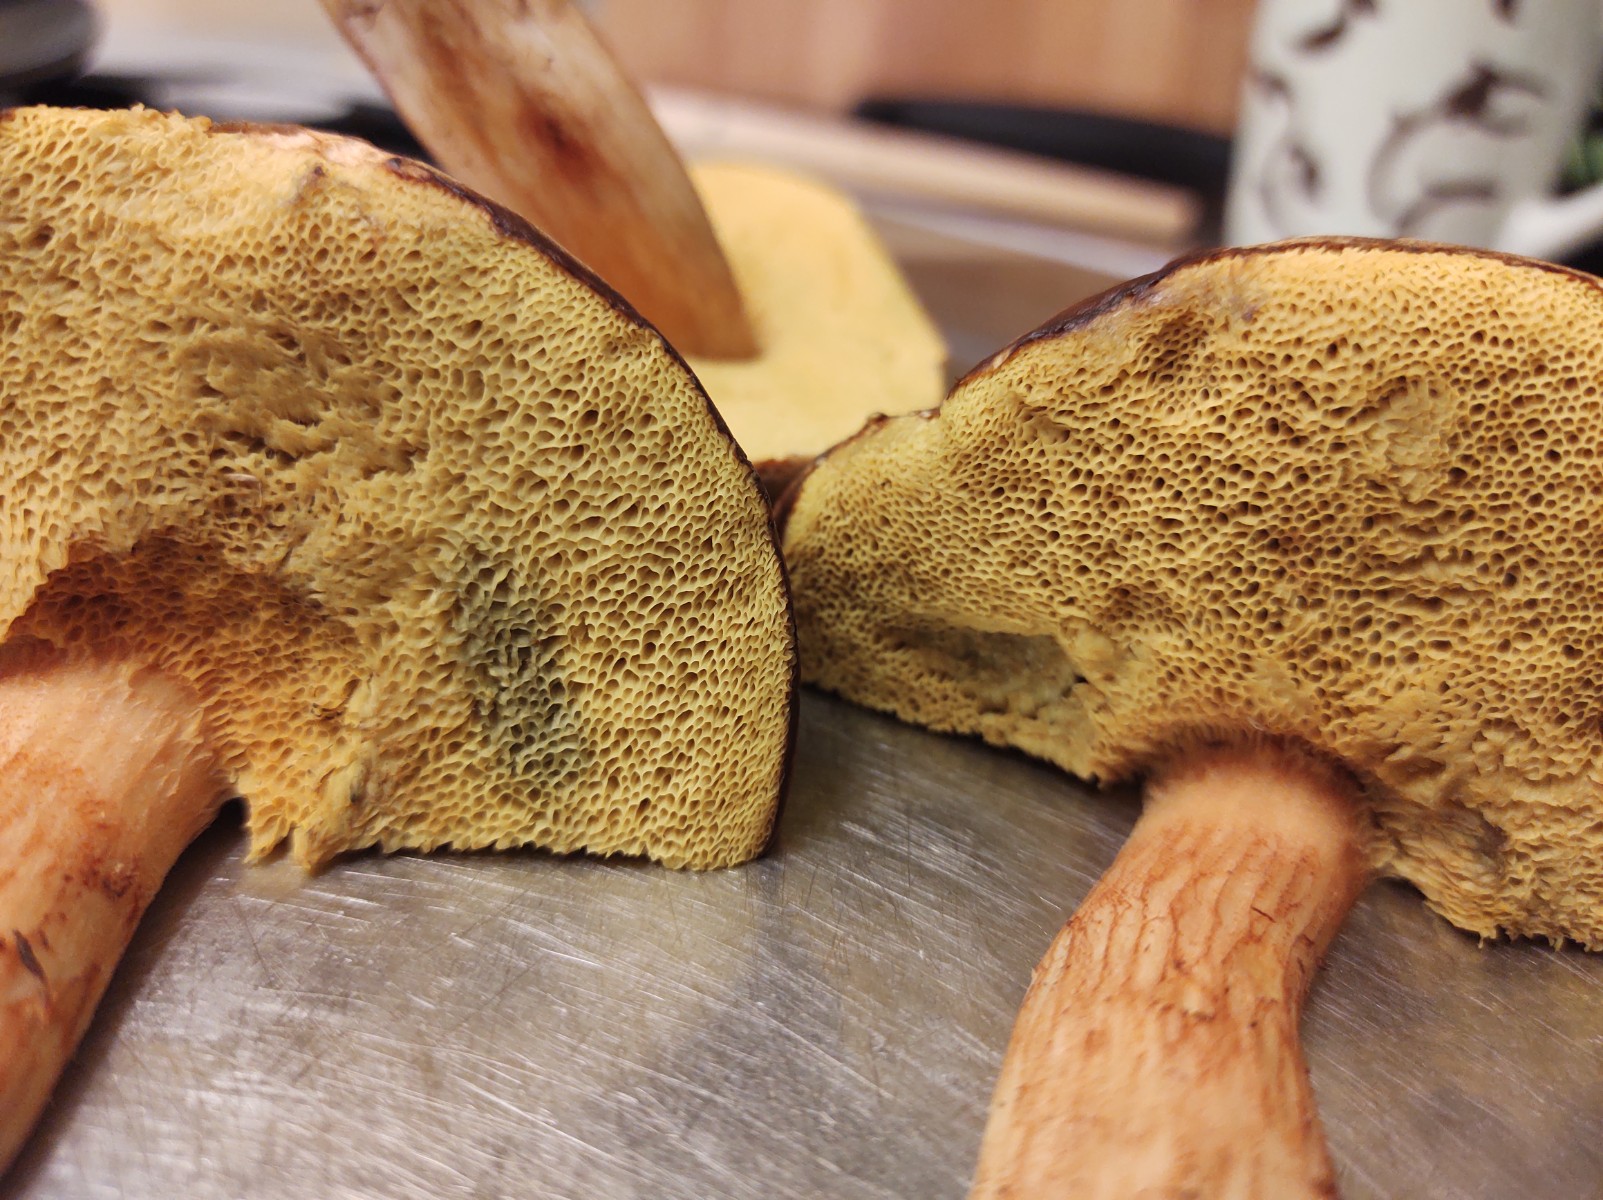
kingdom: Fungi
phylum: Basidiomycota
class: Agaricomycetes
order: Boletales
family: Boletaceae
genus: Xerocomus
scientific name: Xerocomus
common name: filtrørhat
